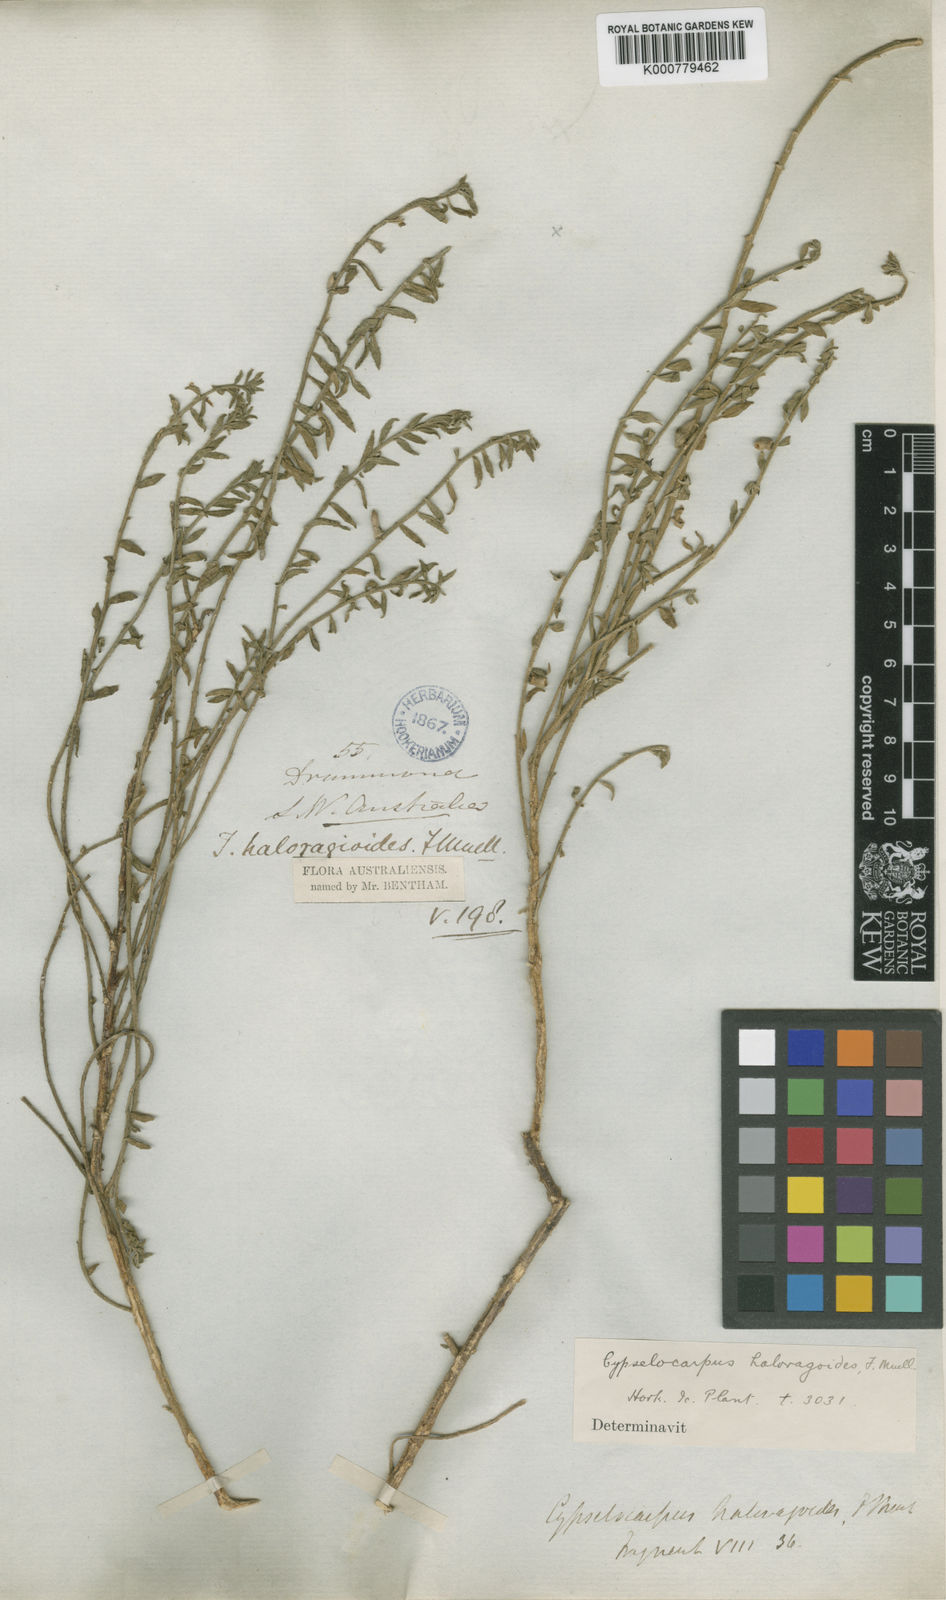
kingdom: Plantae
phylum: Tracheophyta
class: Magnoliopsida
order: Brassicales
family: Gyrostemonaceae
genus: Cypselocarpus
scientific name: Cypselocarpus haloragoides
